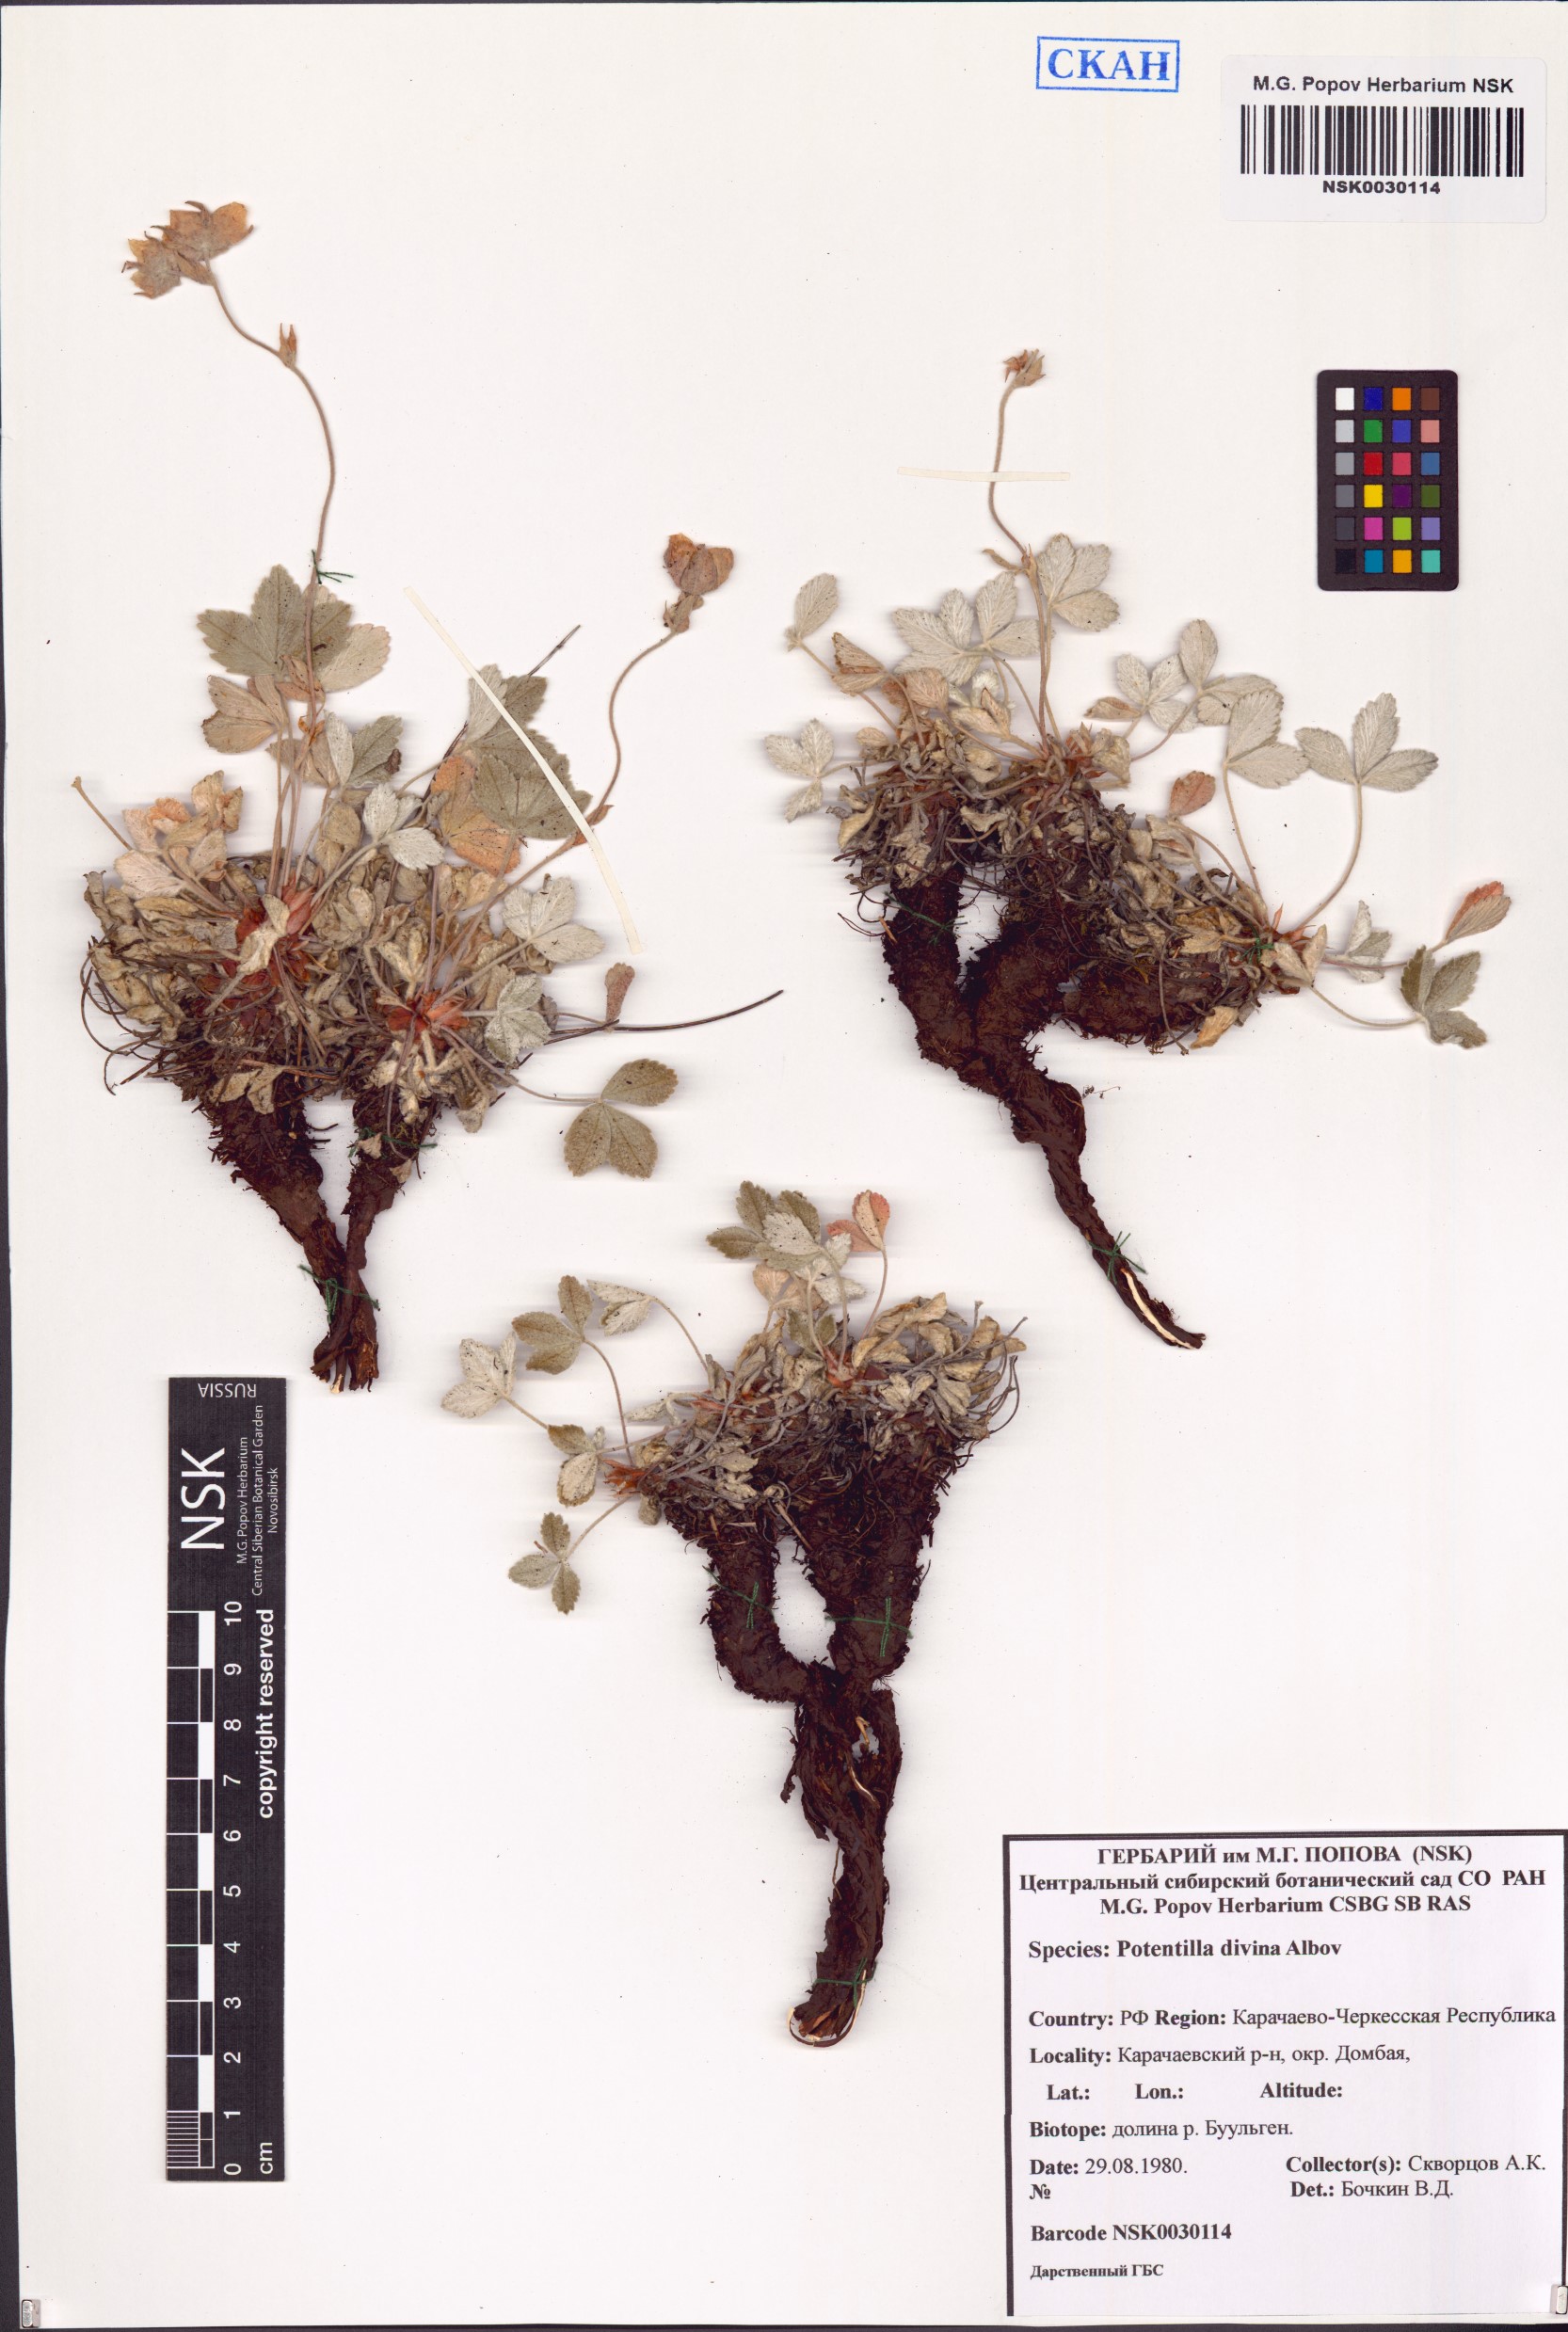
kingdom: Plantae
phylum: Tracheophyta
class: Magnoliopsida
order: Rosales
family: Rosaceae
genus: Potentilla
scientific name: Potentilla divina
